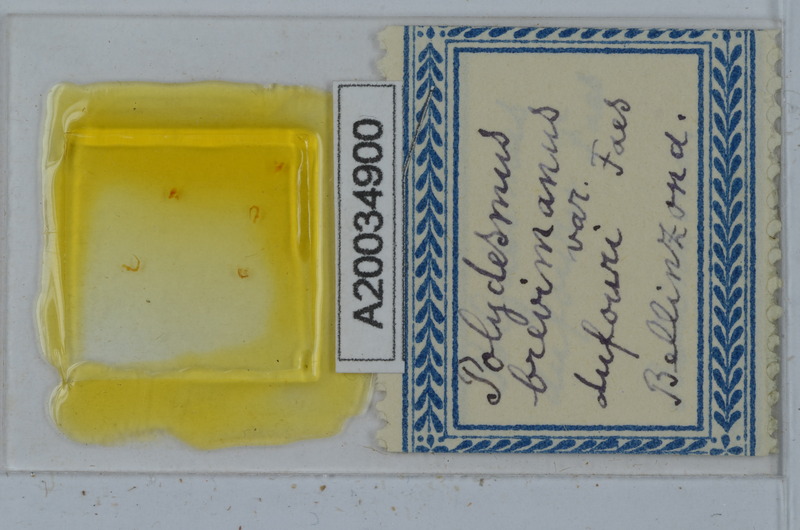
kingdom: Animalia
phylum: Arthropoda
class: Diplopoda
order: Polydesmida
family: Polydesmidae
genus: Polydesmus
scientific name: Polydesmus brevimanus
